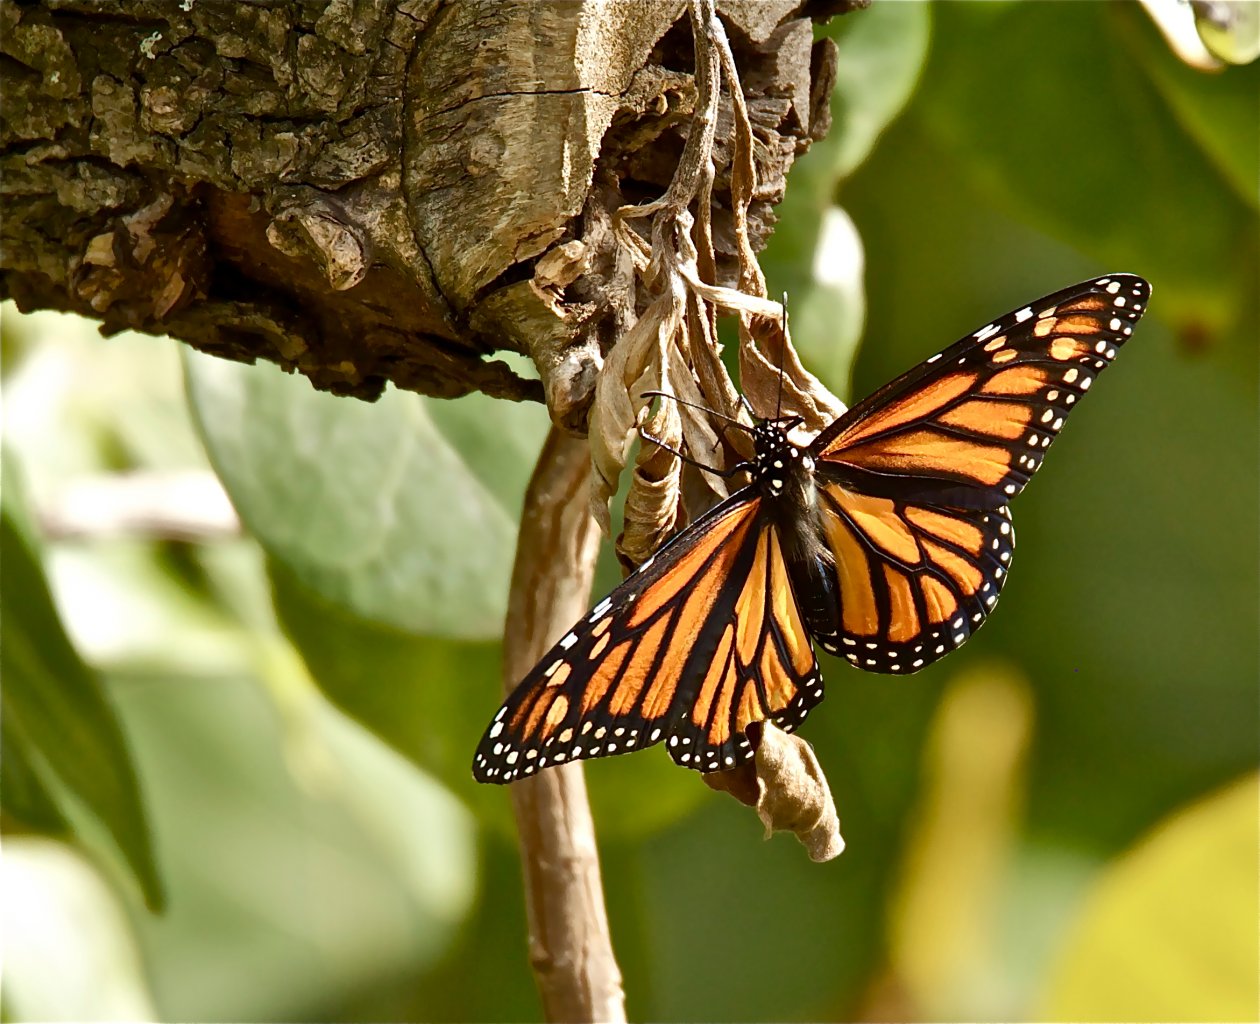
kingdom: Animalia
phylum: Arthropoda
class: Insecta
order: Lepidoptera
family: Nymphalidae
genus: Danaus
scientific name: Danaus plexippus
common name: Monarch
